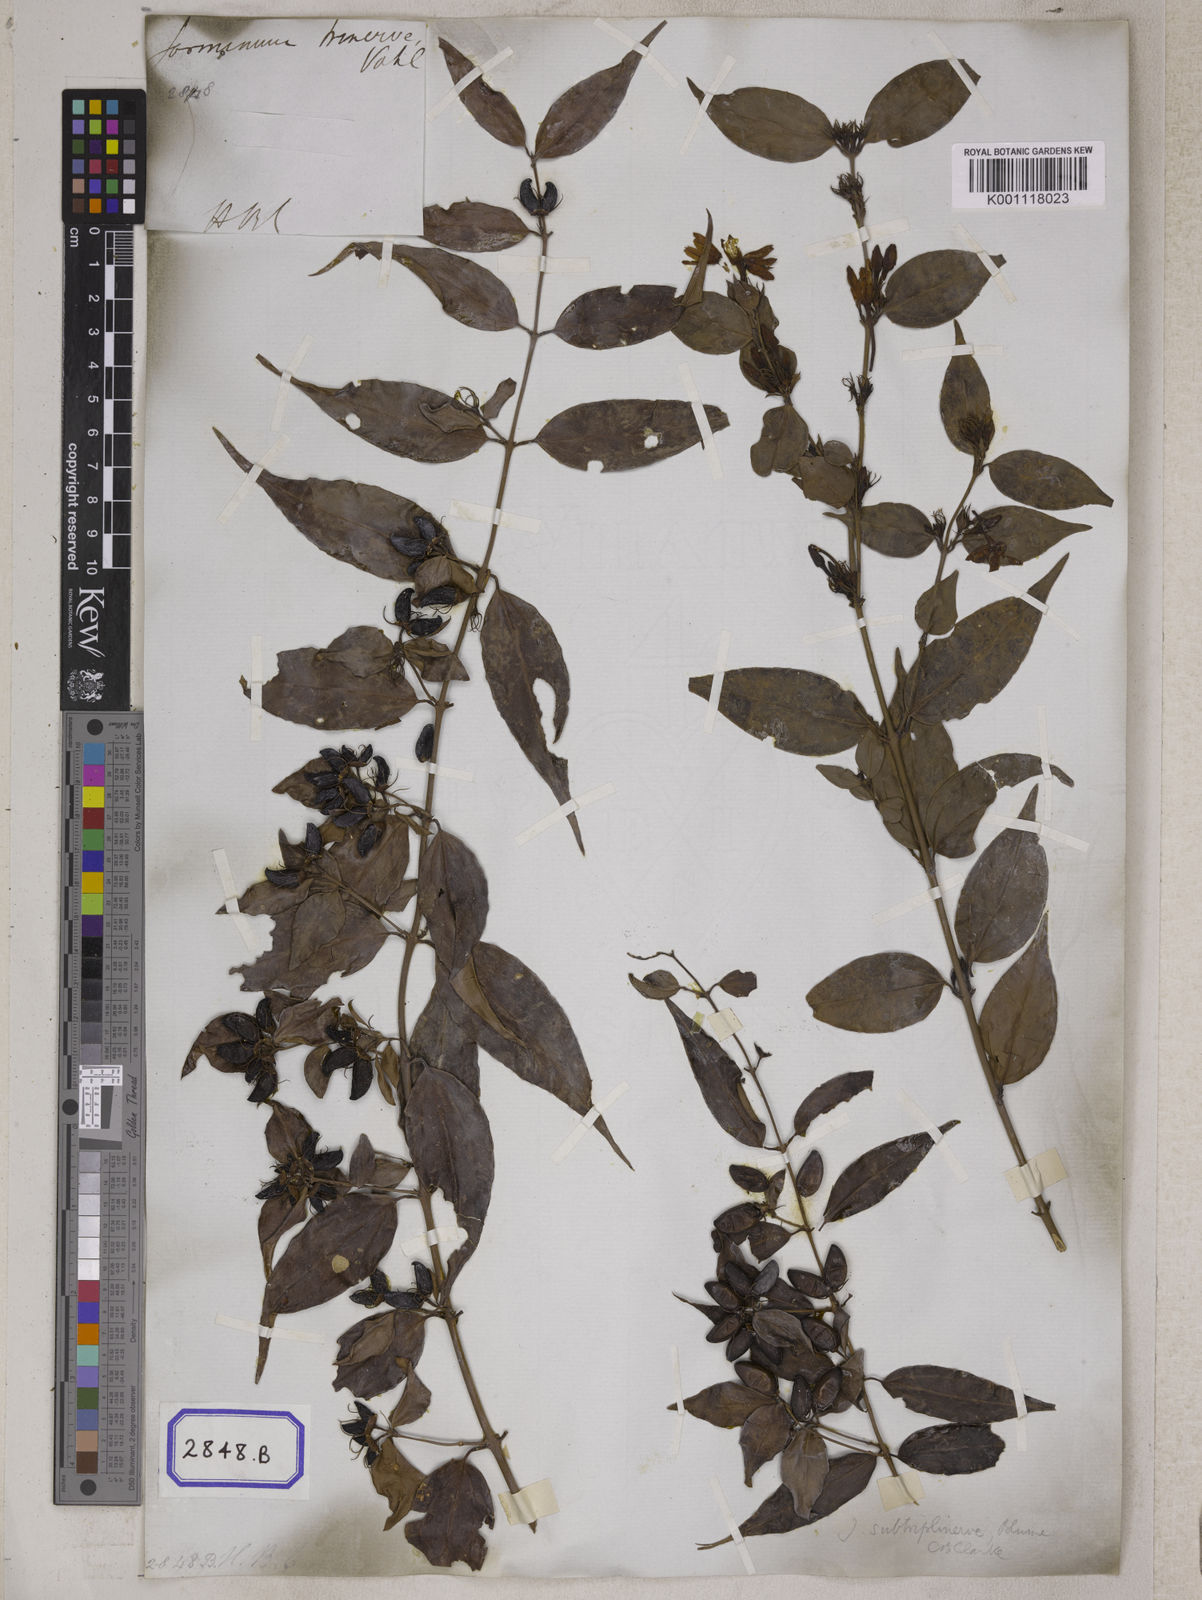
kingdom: Plantae
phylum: Tracheophyta
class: Magnoliopsida
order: Lamiales
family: Oleaceae
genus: Jasminum
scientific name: Jasminum acuminatum
